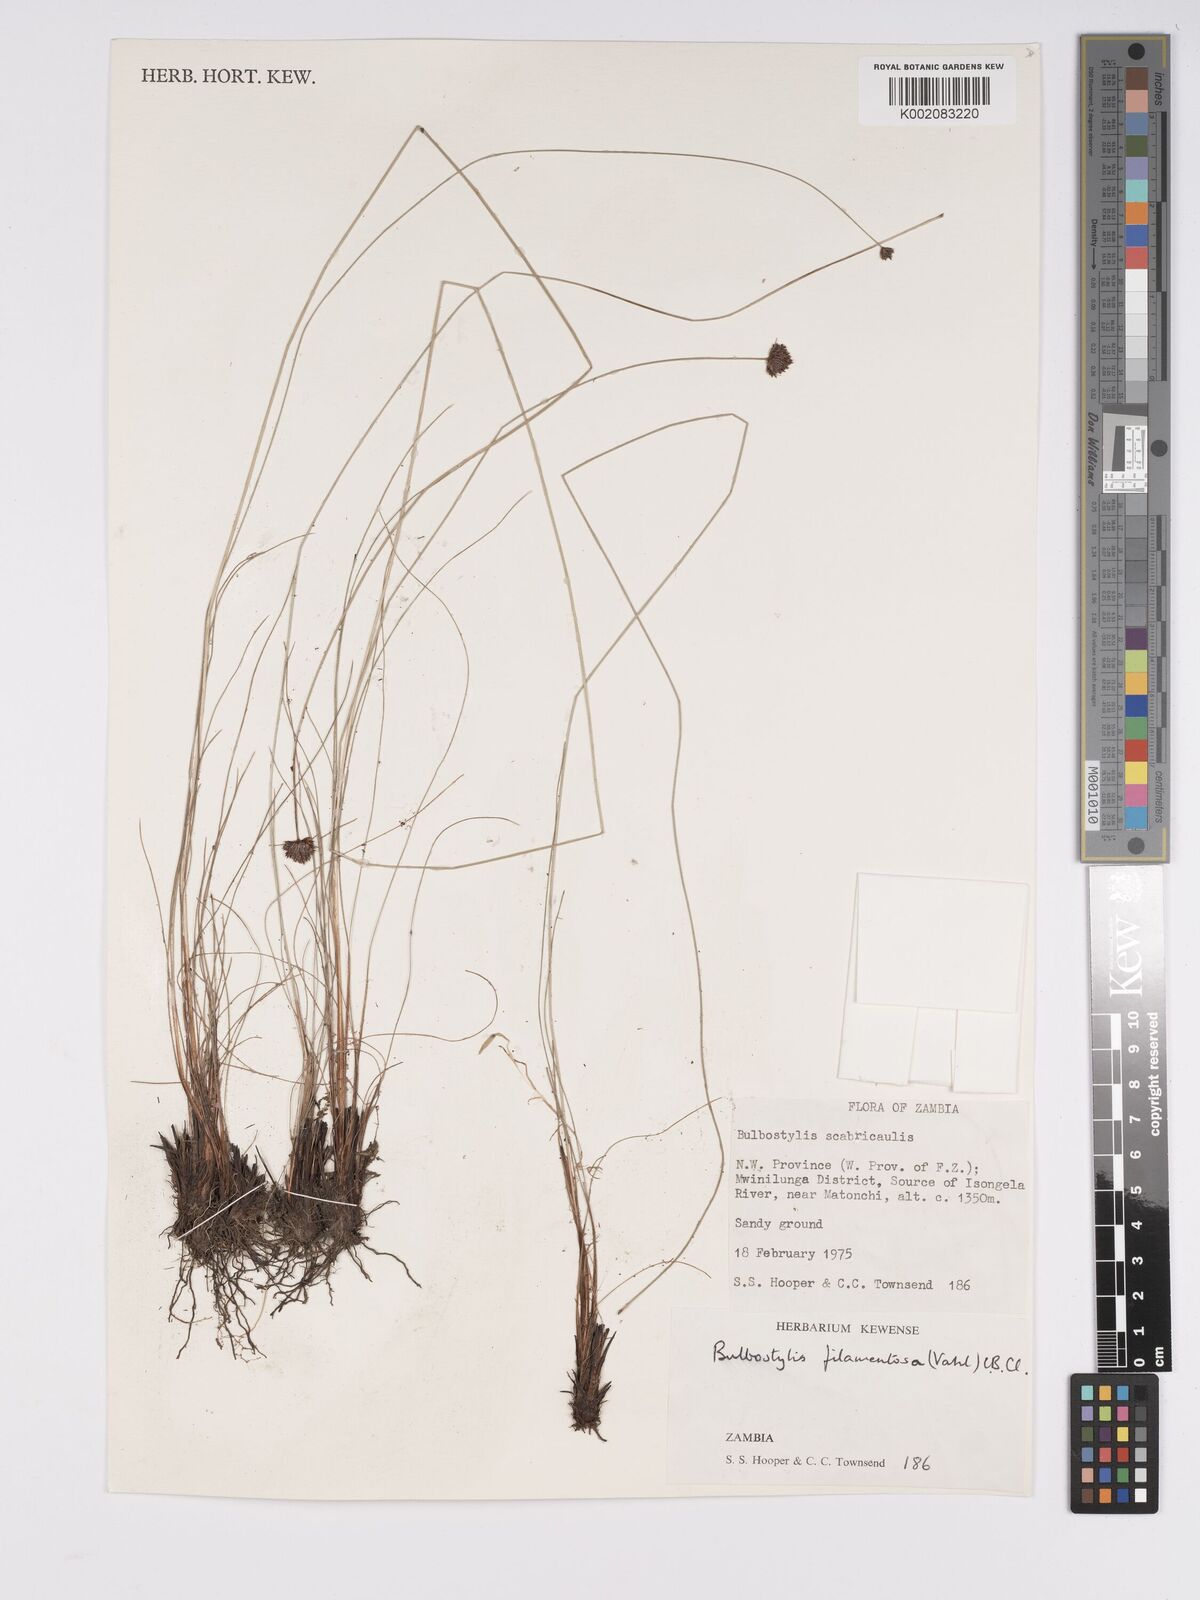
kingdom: Plantae
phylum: Tracheophyta
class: Liliopsida
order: Poales
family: Cyperaceae
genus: Bulbostylis
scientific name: Bulbostylis filamentosa
